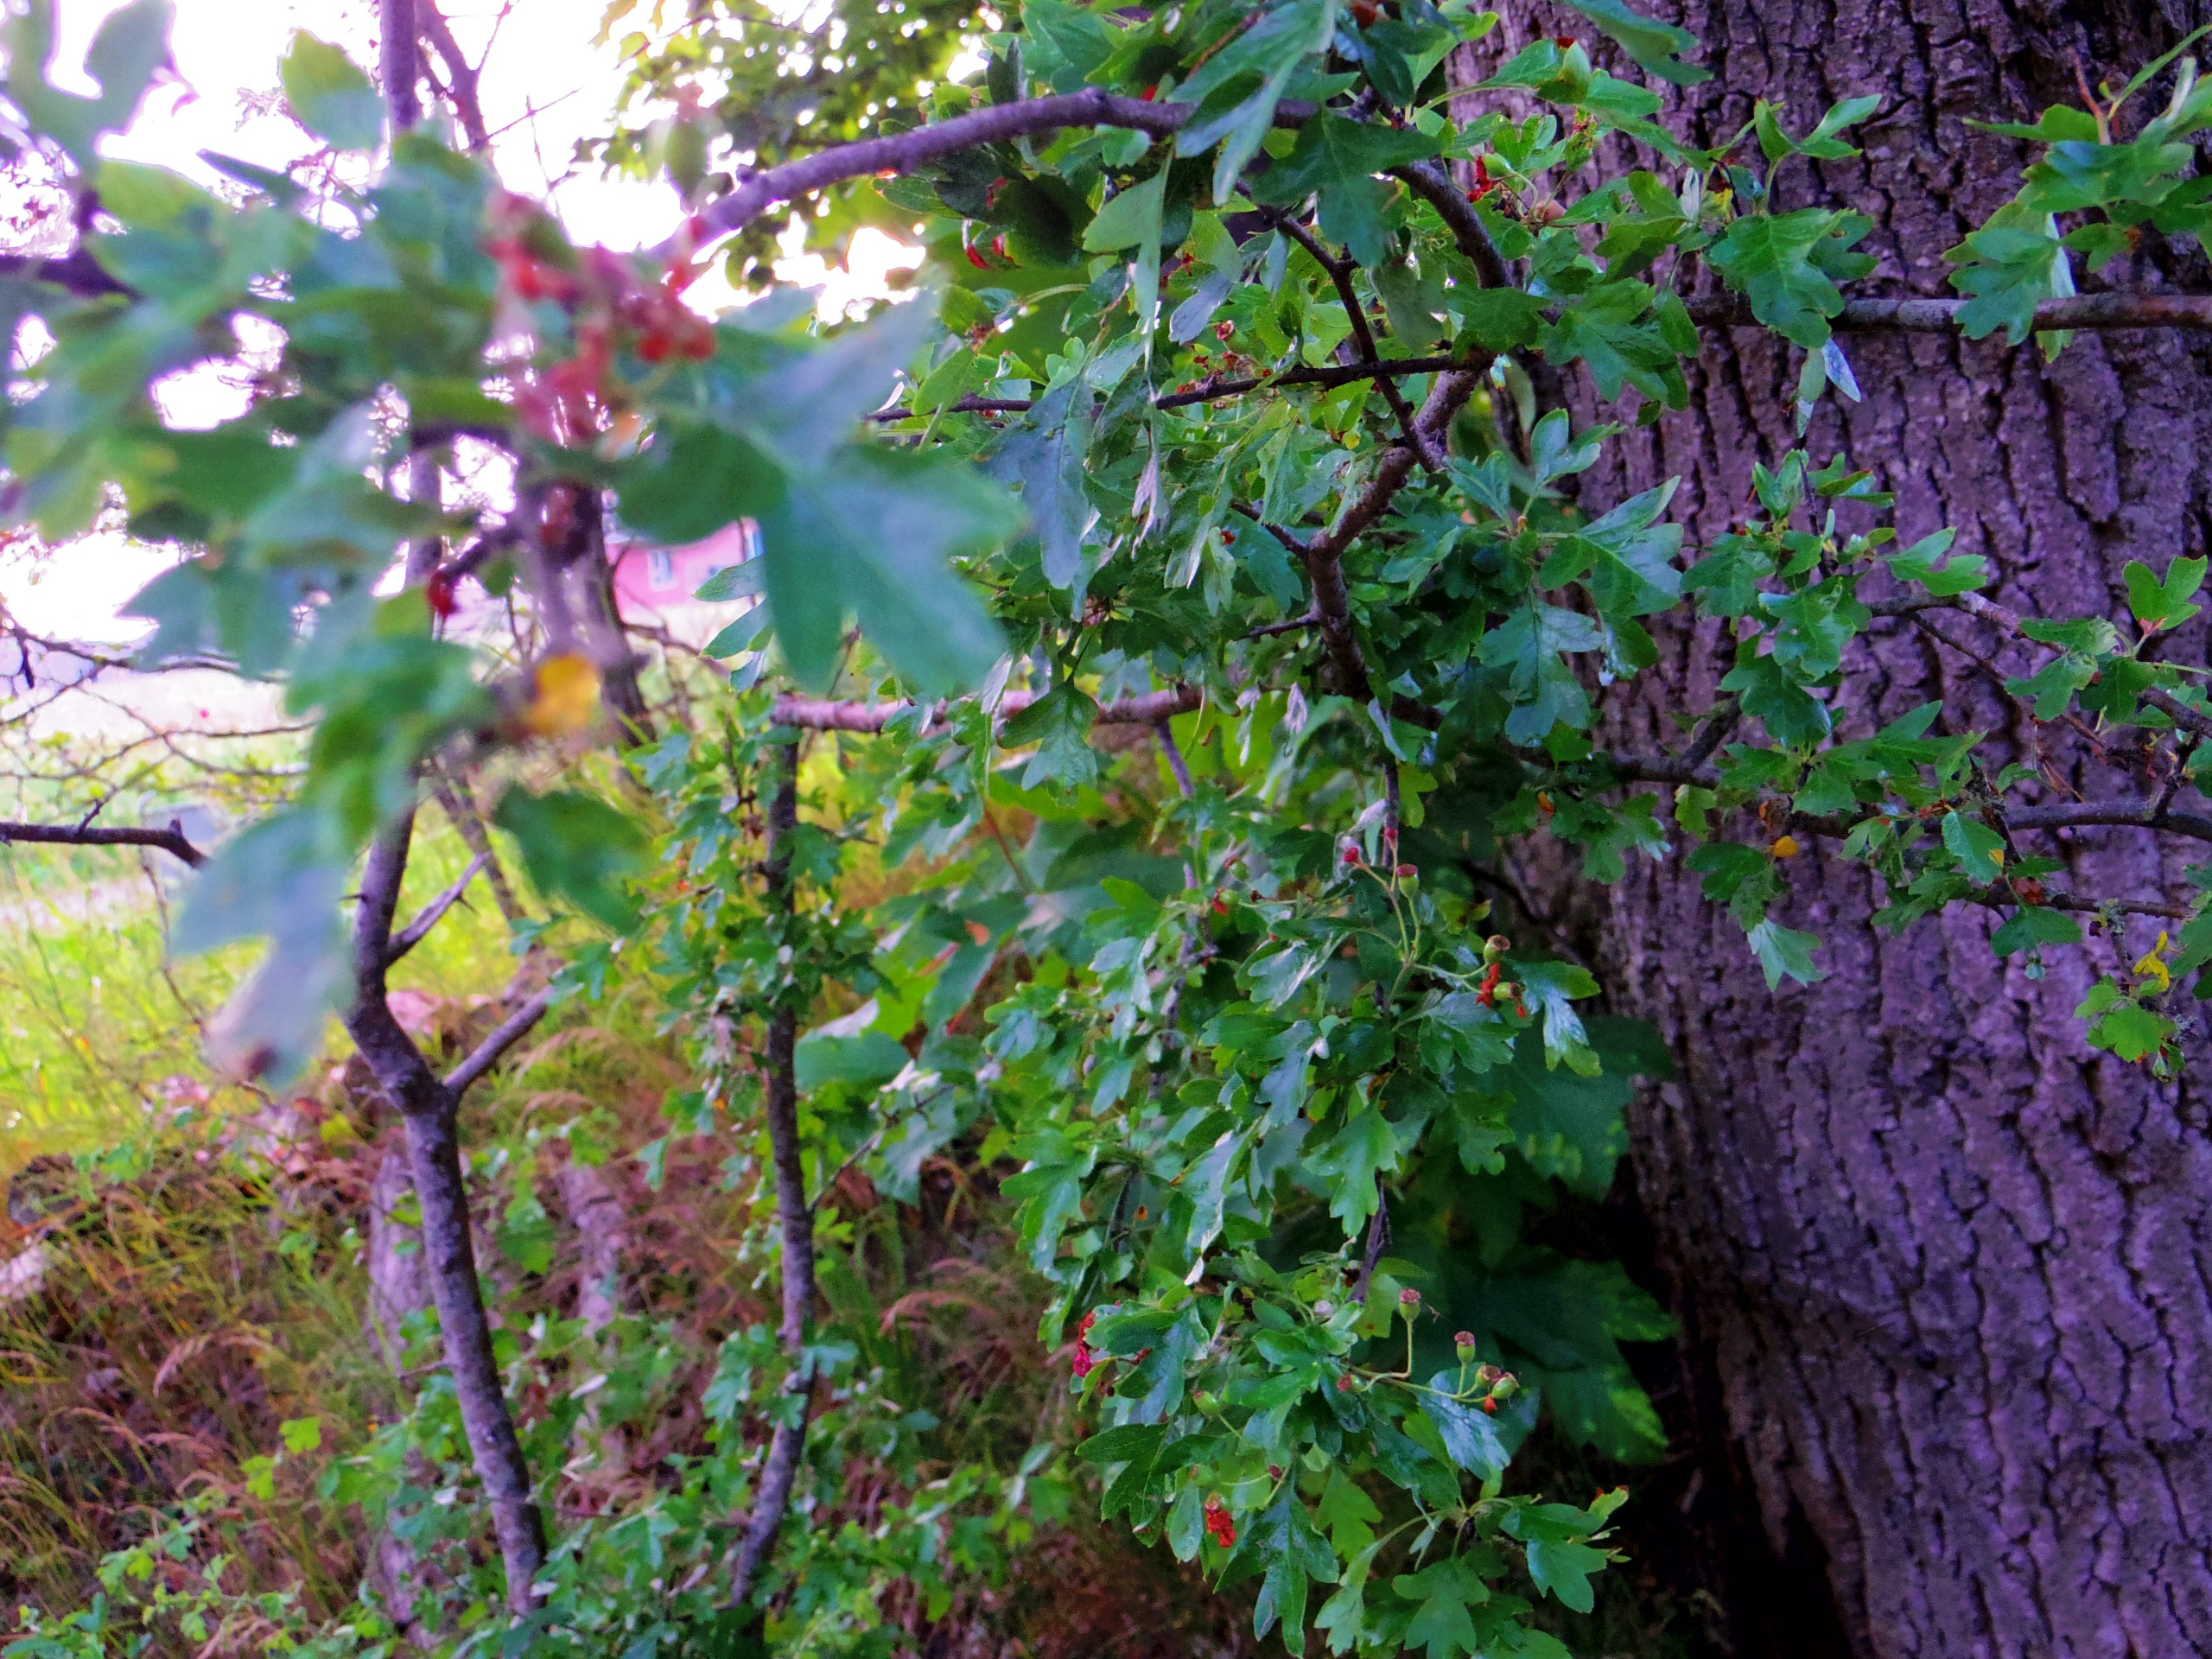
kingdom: Plantae
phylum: Tracheophyta
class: Magnoliopsida
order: Rosales
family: Rosaceae
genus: Crataegus
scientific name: Crataegus monogyna
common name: Engriflet hvidtjørn
